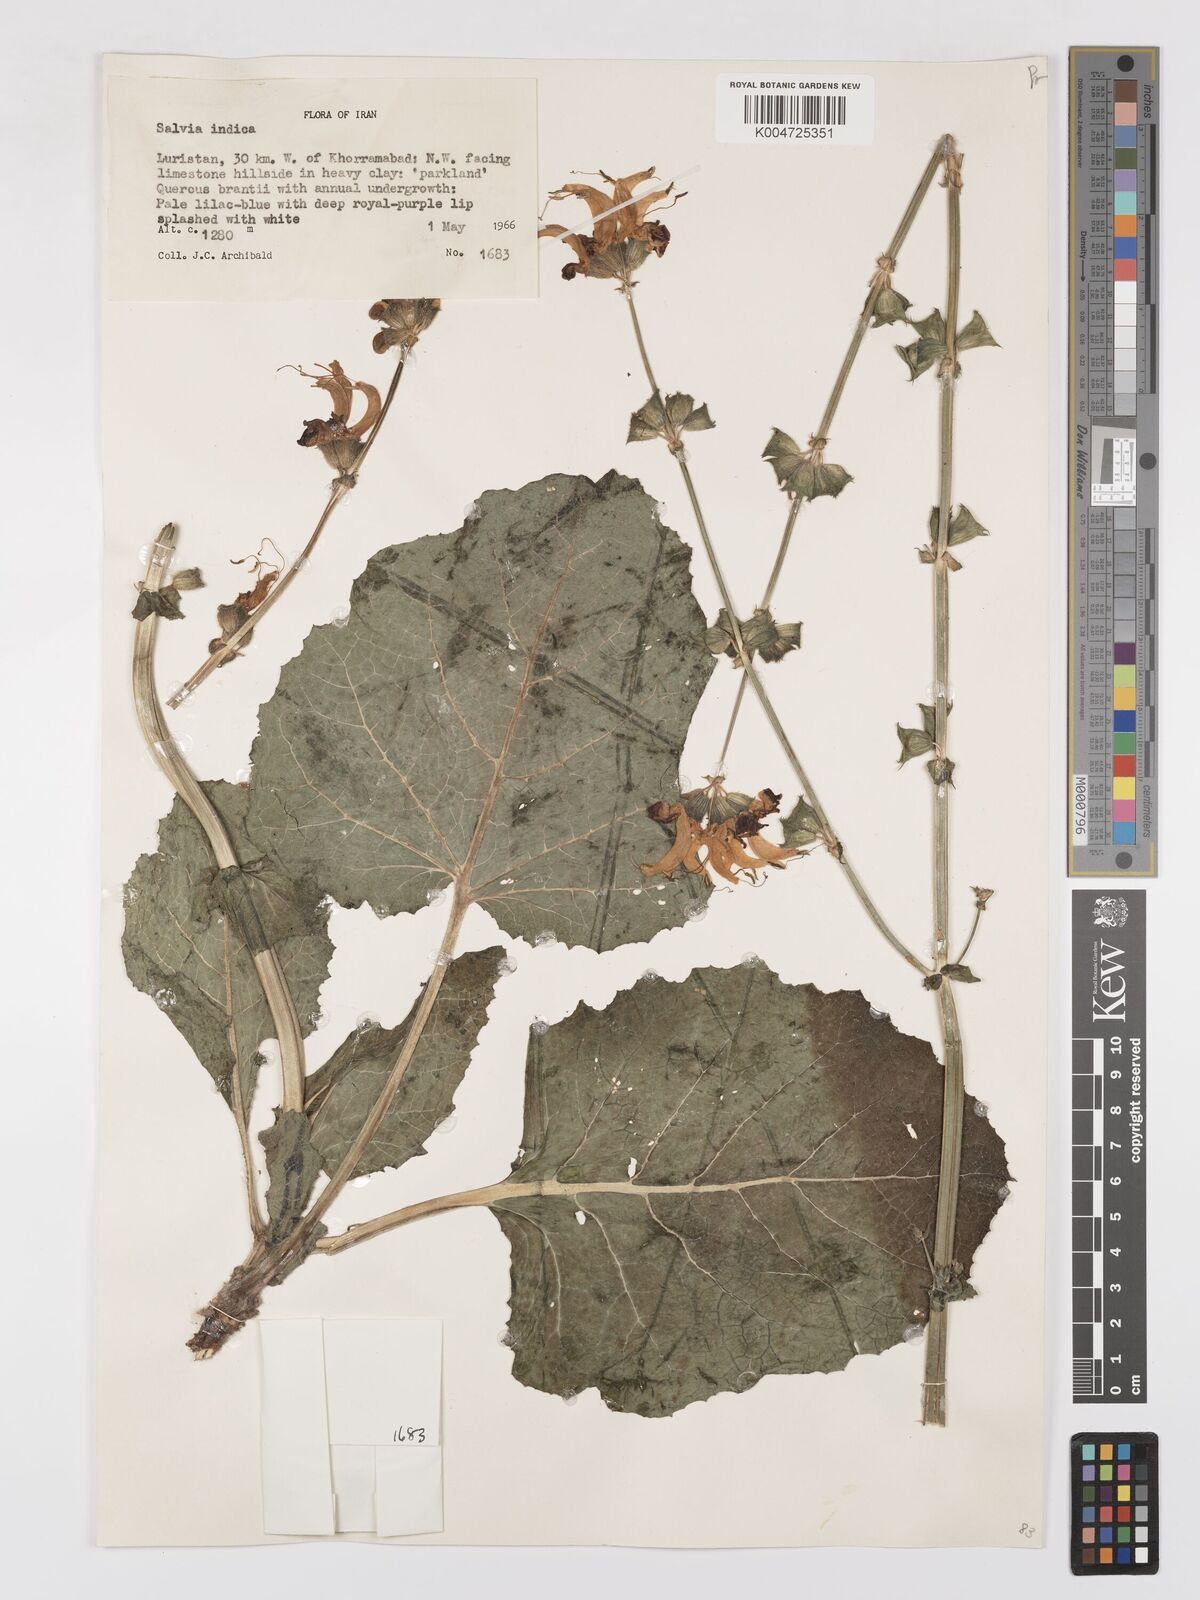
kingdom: Plantae
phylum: Tracheophyta
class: Magnoliopsida
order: Lamiales
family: Lamiaceae
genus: Salvia
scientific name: Salvia indica
